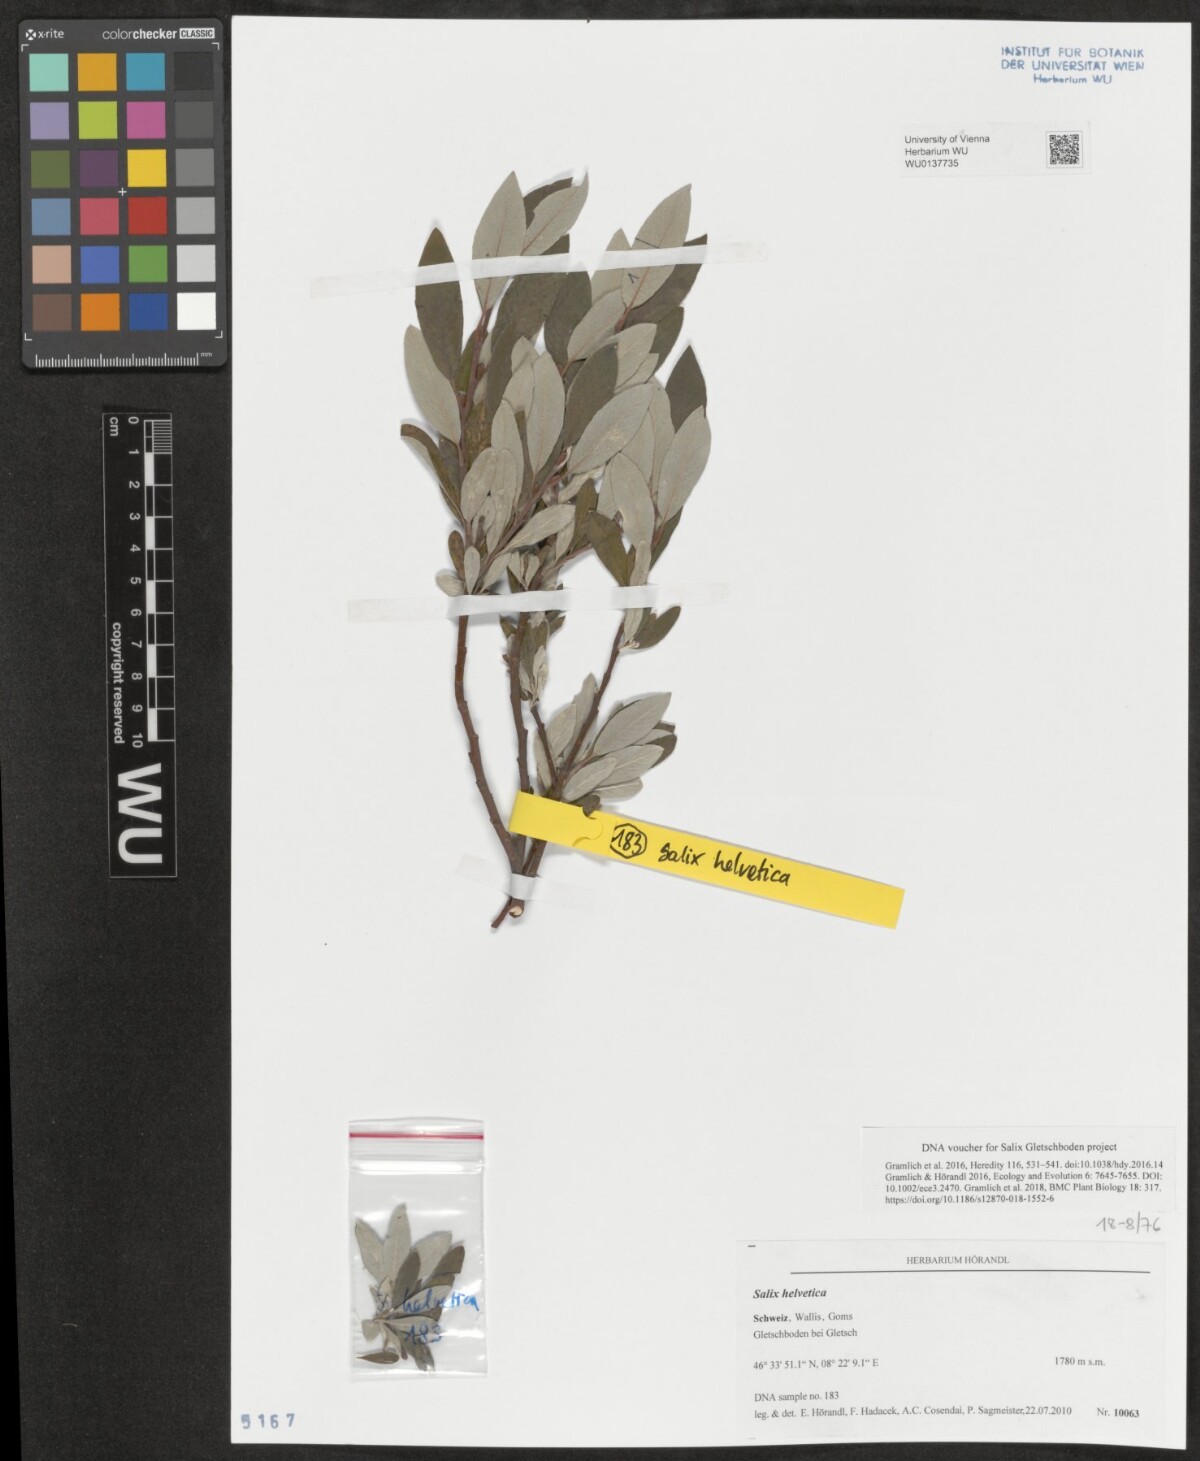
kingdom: Plantae
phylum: Tracheophyta
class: Magnoliopsida
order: Malpighiales
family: Salicaceae
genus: Salix
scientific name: Salix helvetica
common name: Swiss willow
